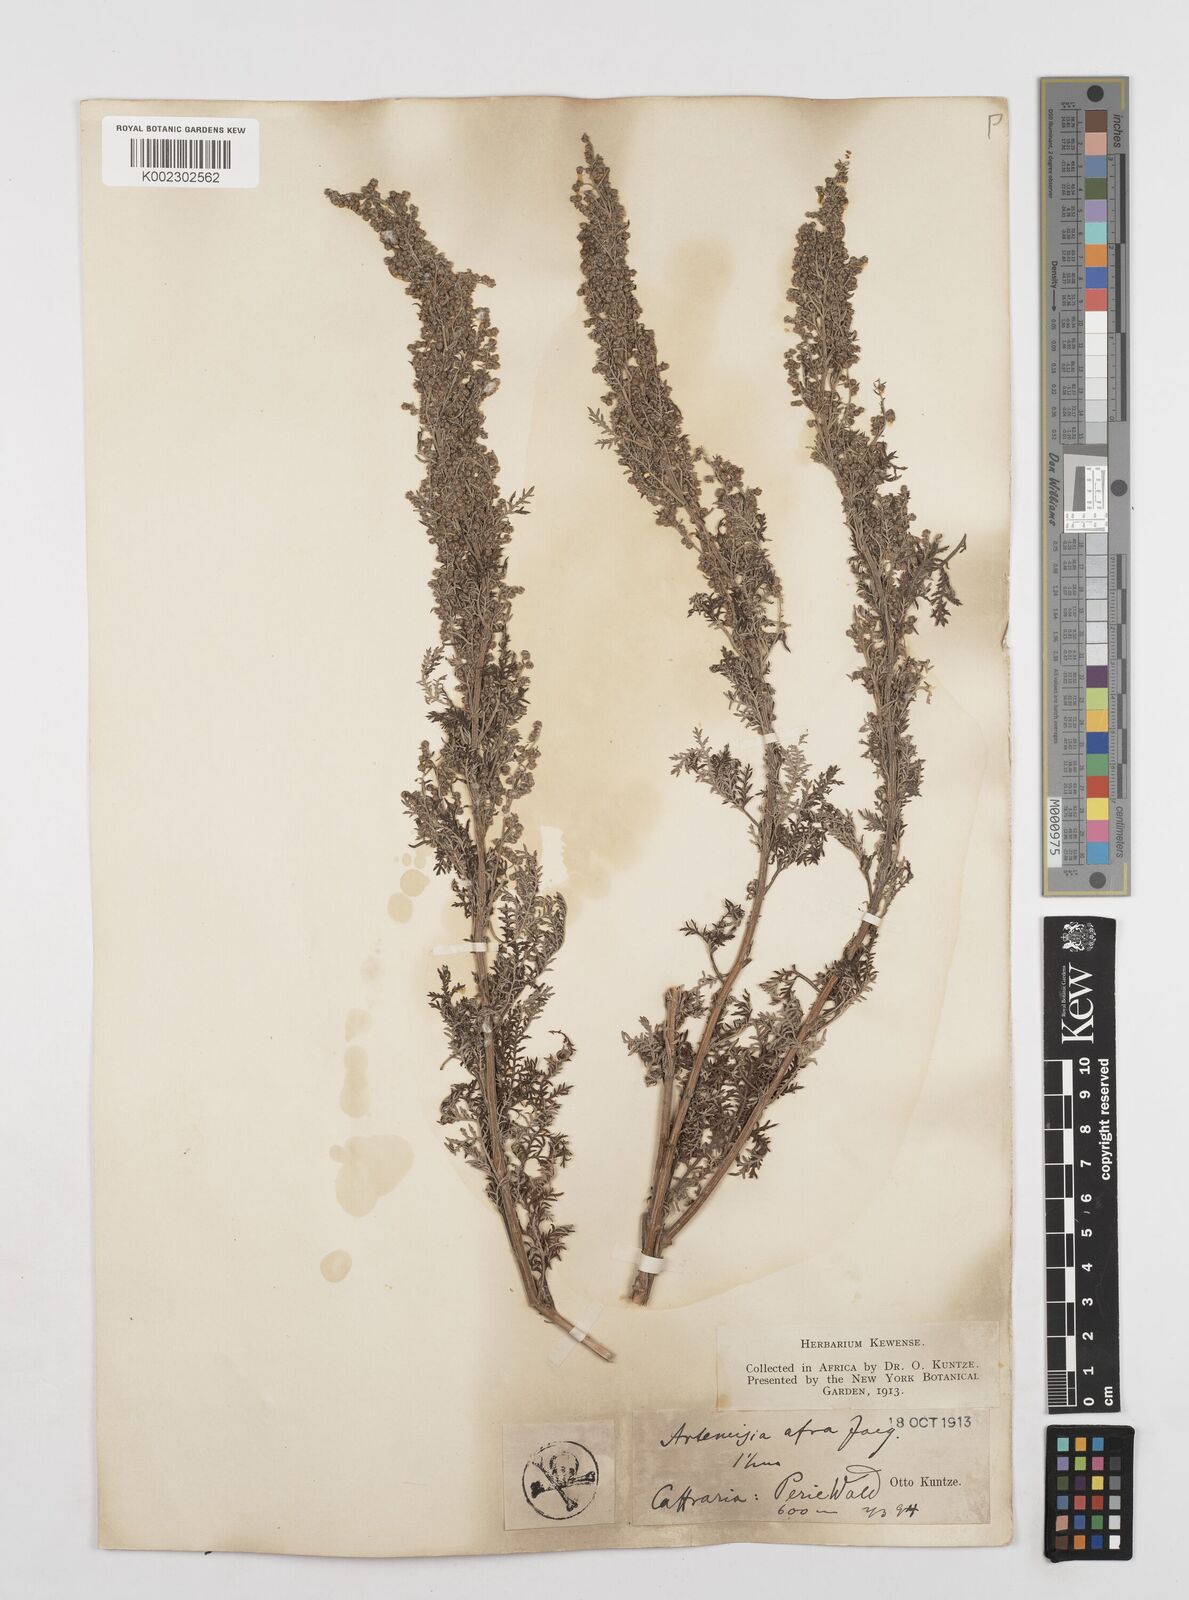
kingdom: Plantae
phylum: Tracheophyta
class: Magnoliopsida
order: Asterales
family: Asteraceae
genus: Artemisia
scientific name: Artemisia afra
